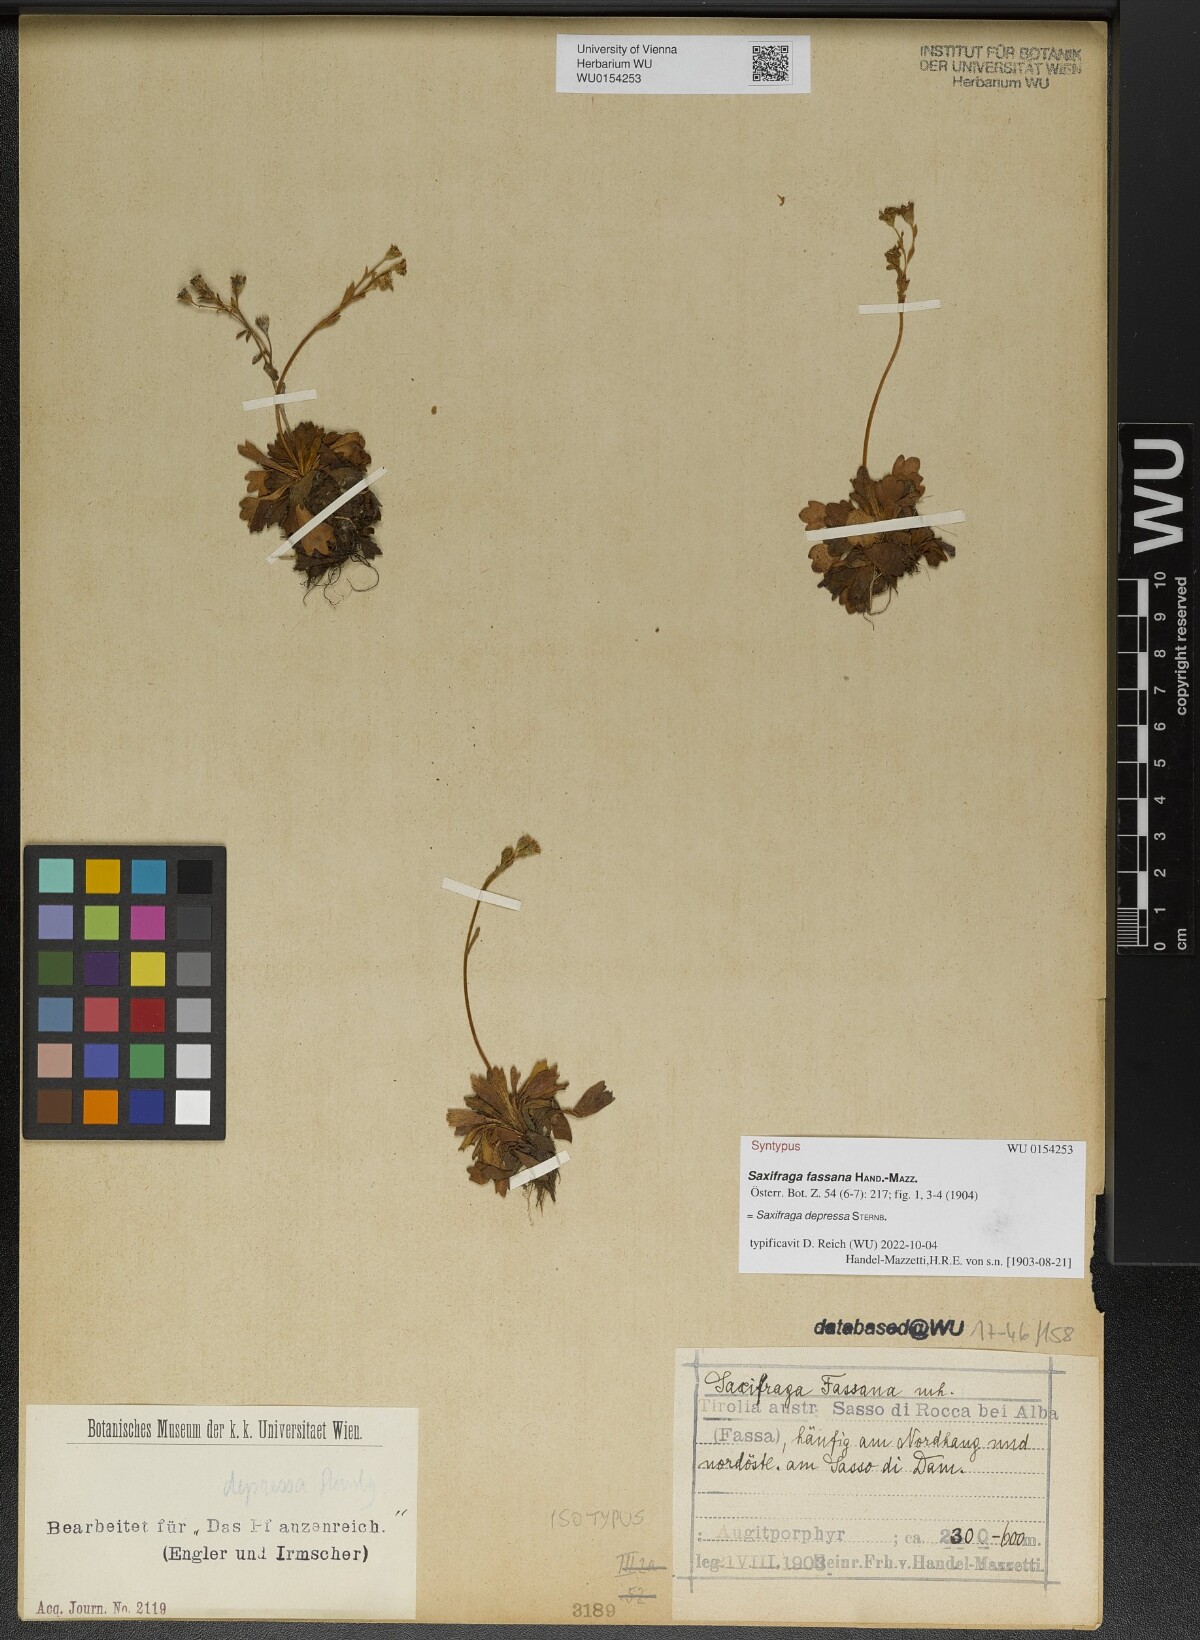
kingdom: Plantae
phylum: Tracheophyta
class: Magnoliopsida
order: Saxifragales
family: Saxifragaceae
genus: Saxifraga
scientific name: Saxifraga depressa
